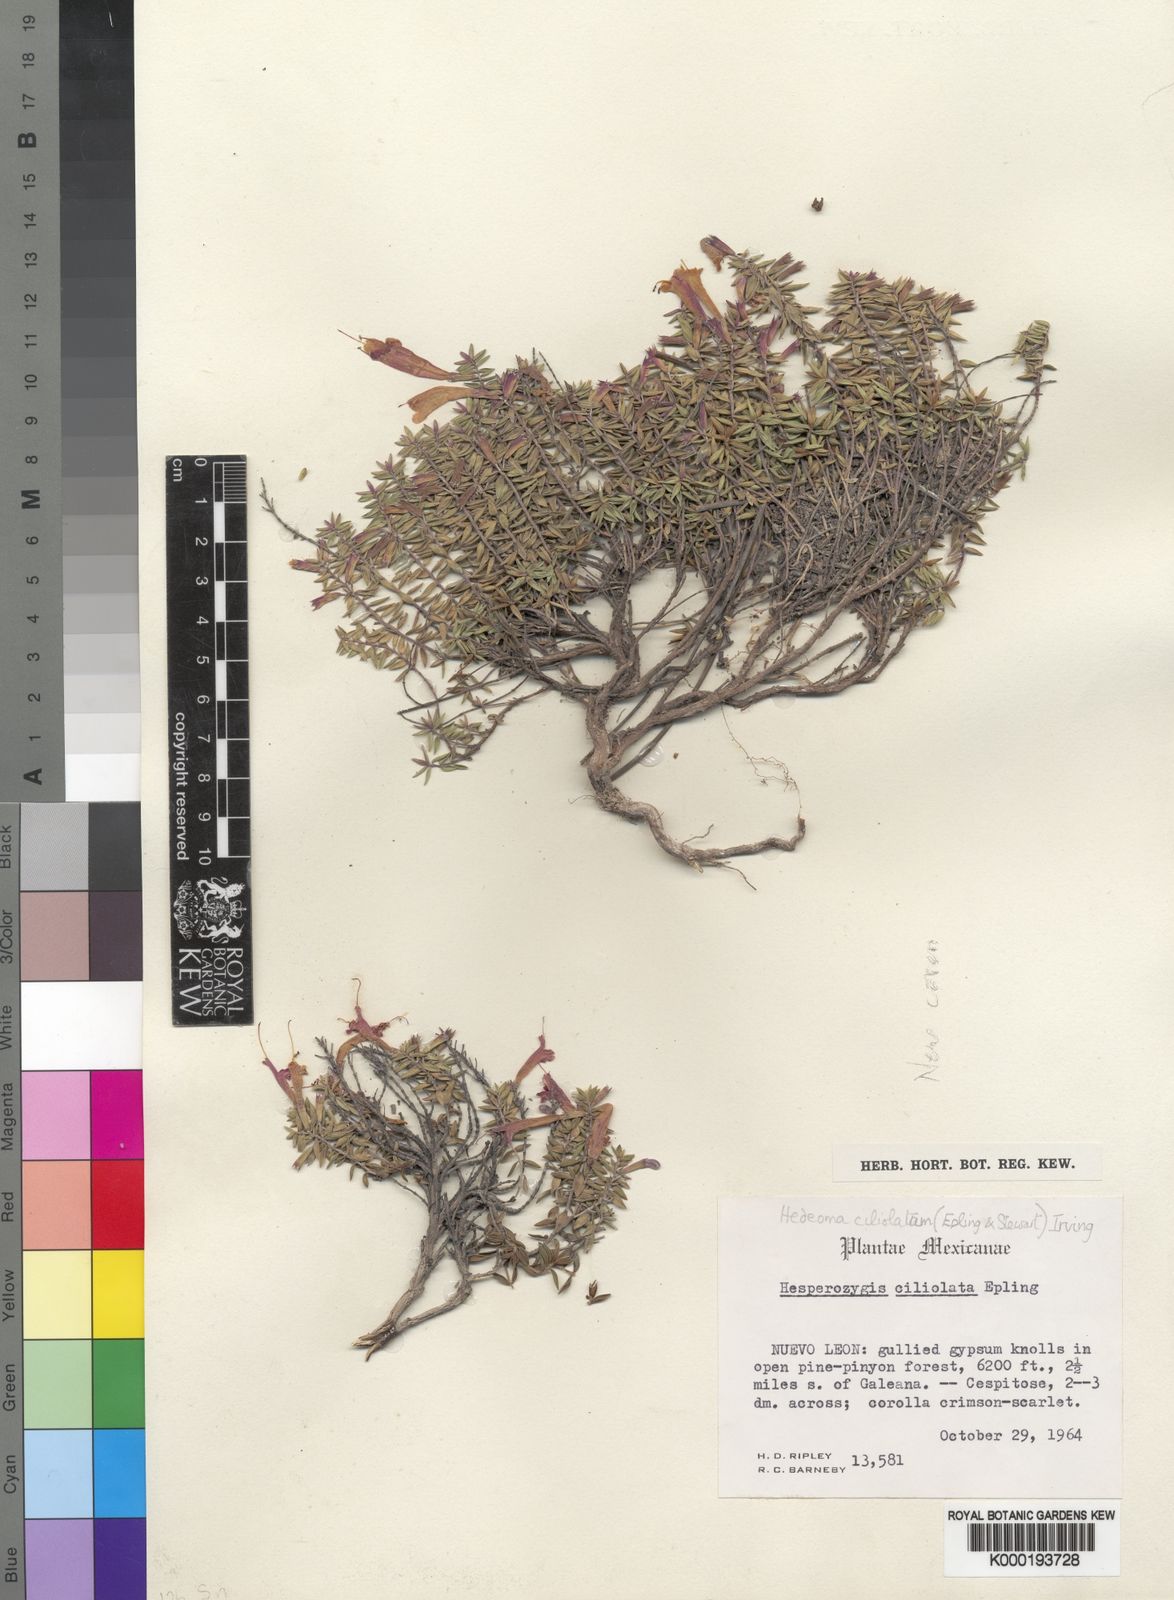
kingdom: Plantae
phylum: Tracheophyta
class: Magnoliopsida
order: Lamiales
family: Lamiaceae
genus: Hedeoma
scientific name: Hedeoma ciliolata
